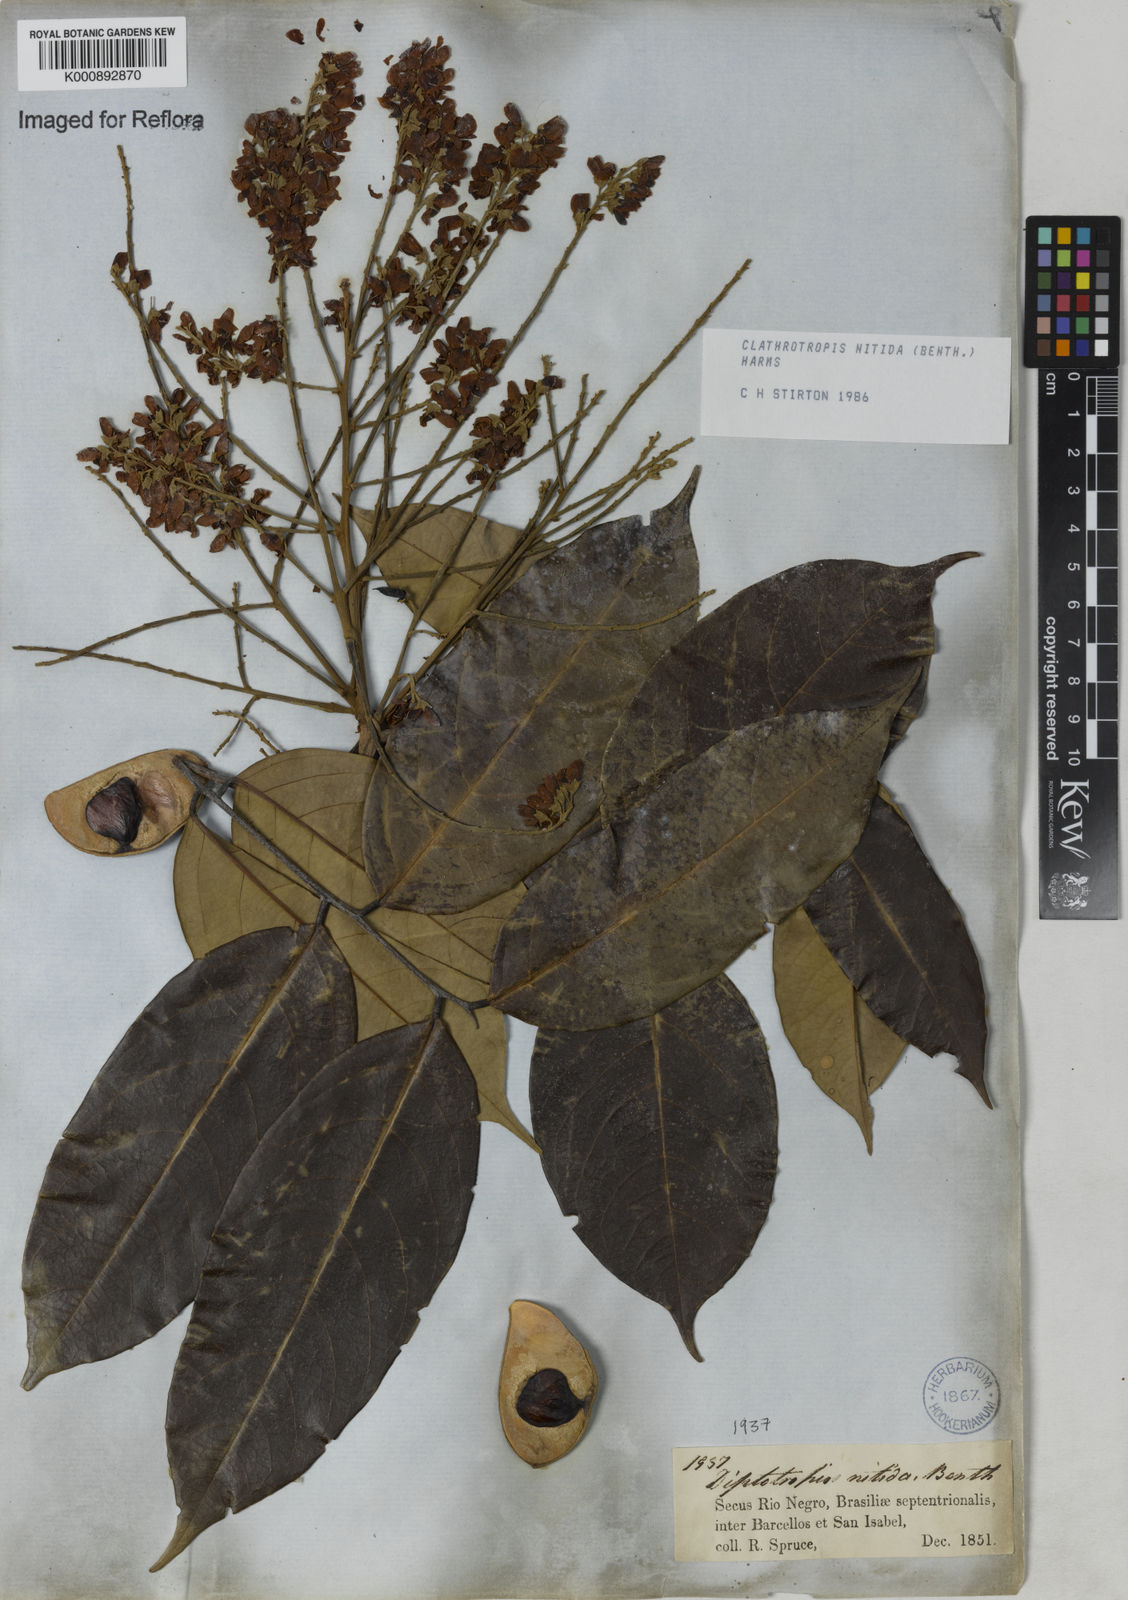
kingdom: Plantae
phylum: Tracheophyta
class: Magnoliopsida
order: Fabales
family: Fabaceae
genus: Clathrotropis
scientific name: Clathrotropis nitida
